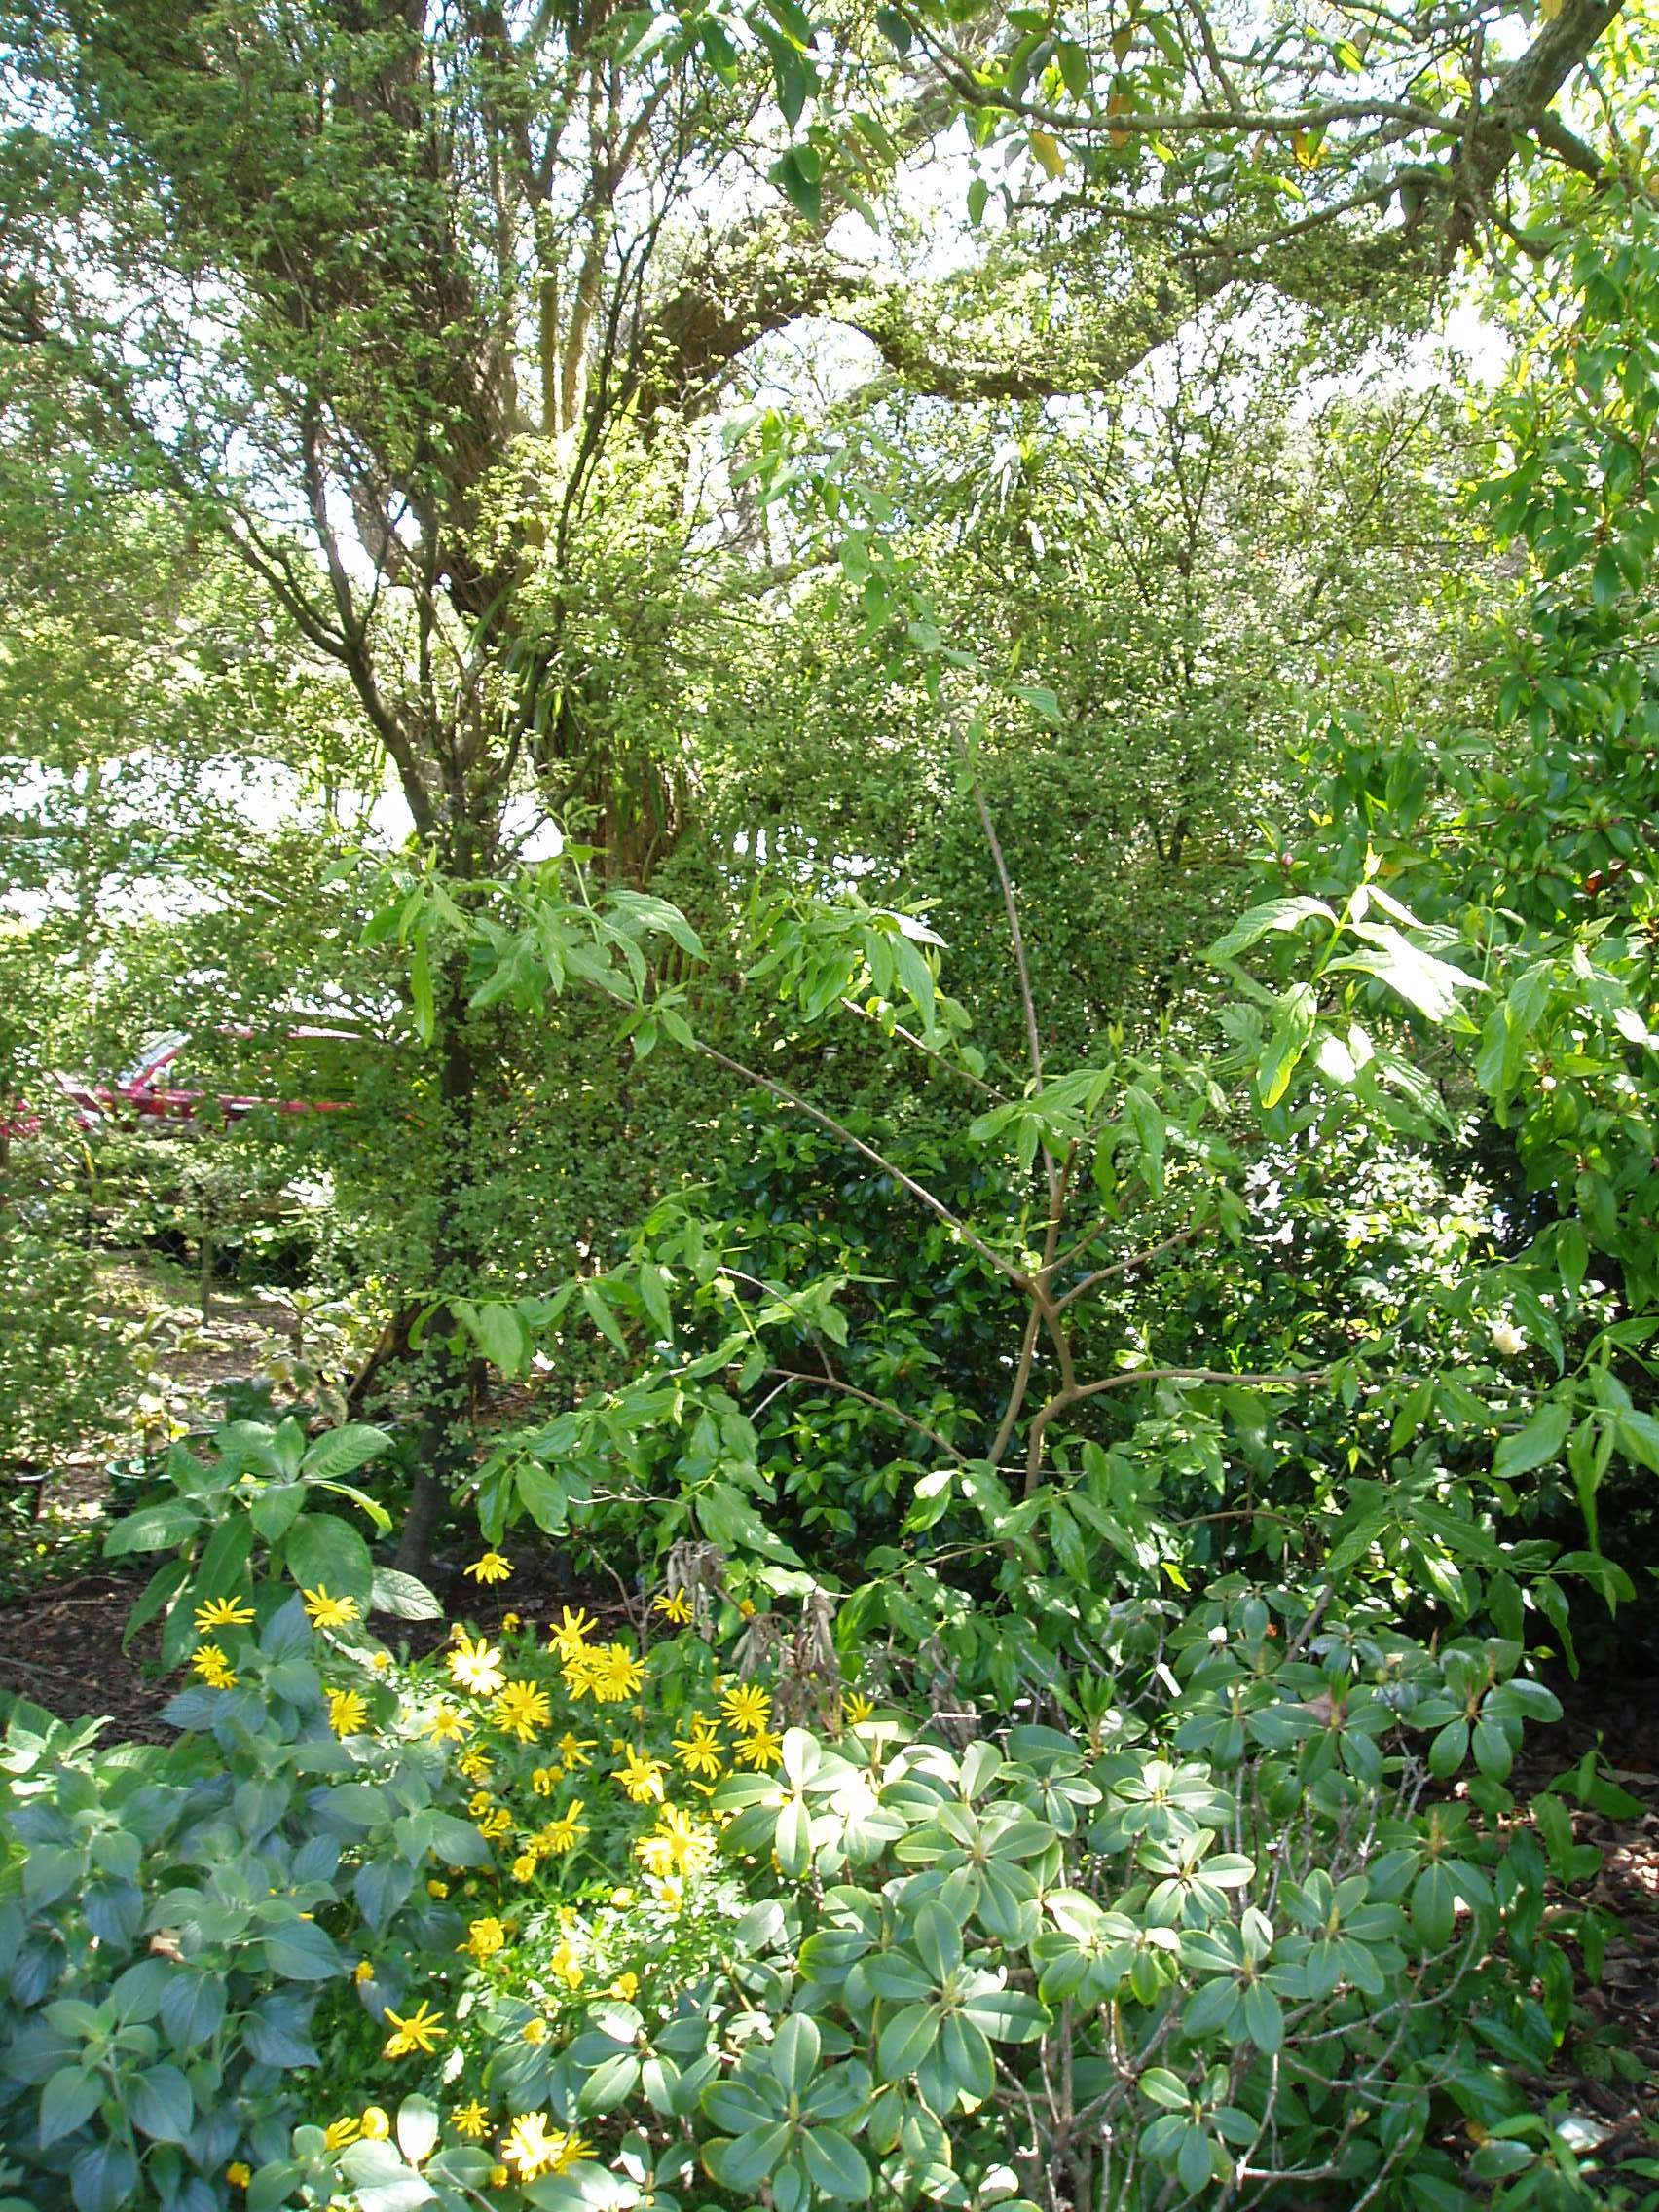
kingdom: Plantae
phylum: Tracheophyta
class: Magnoliopsida
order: Laurales
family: Calycanthaceae
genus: Chimonanthus
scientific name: Chimonanthus praecox
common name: Wintersweet
